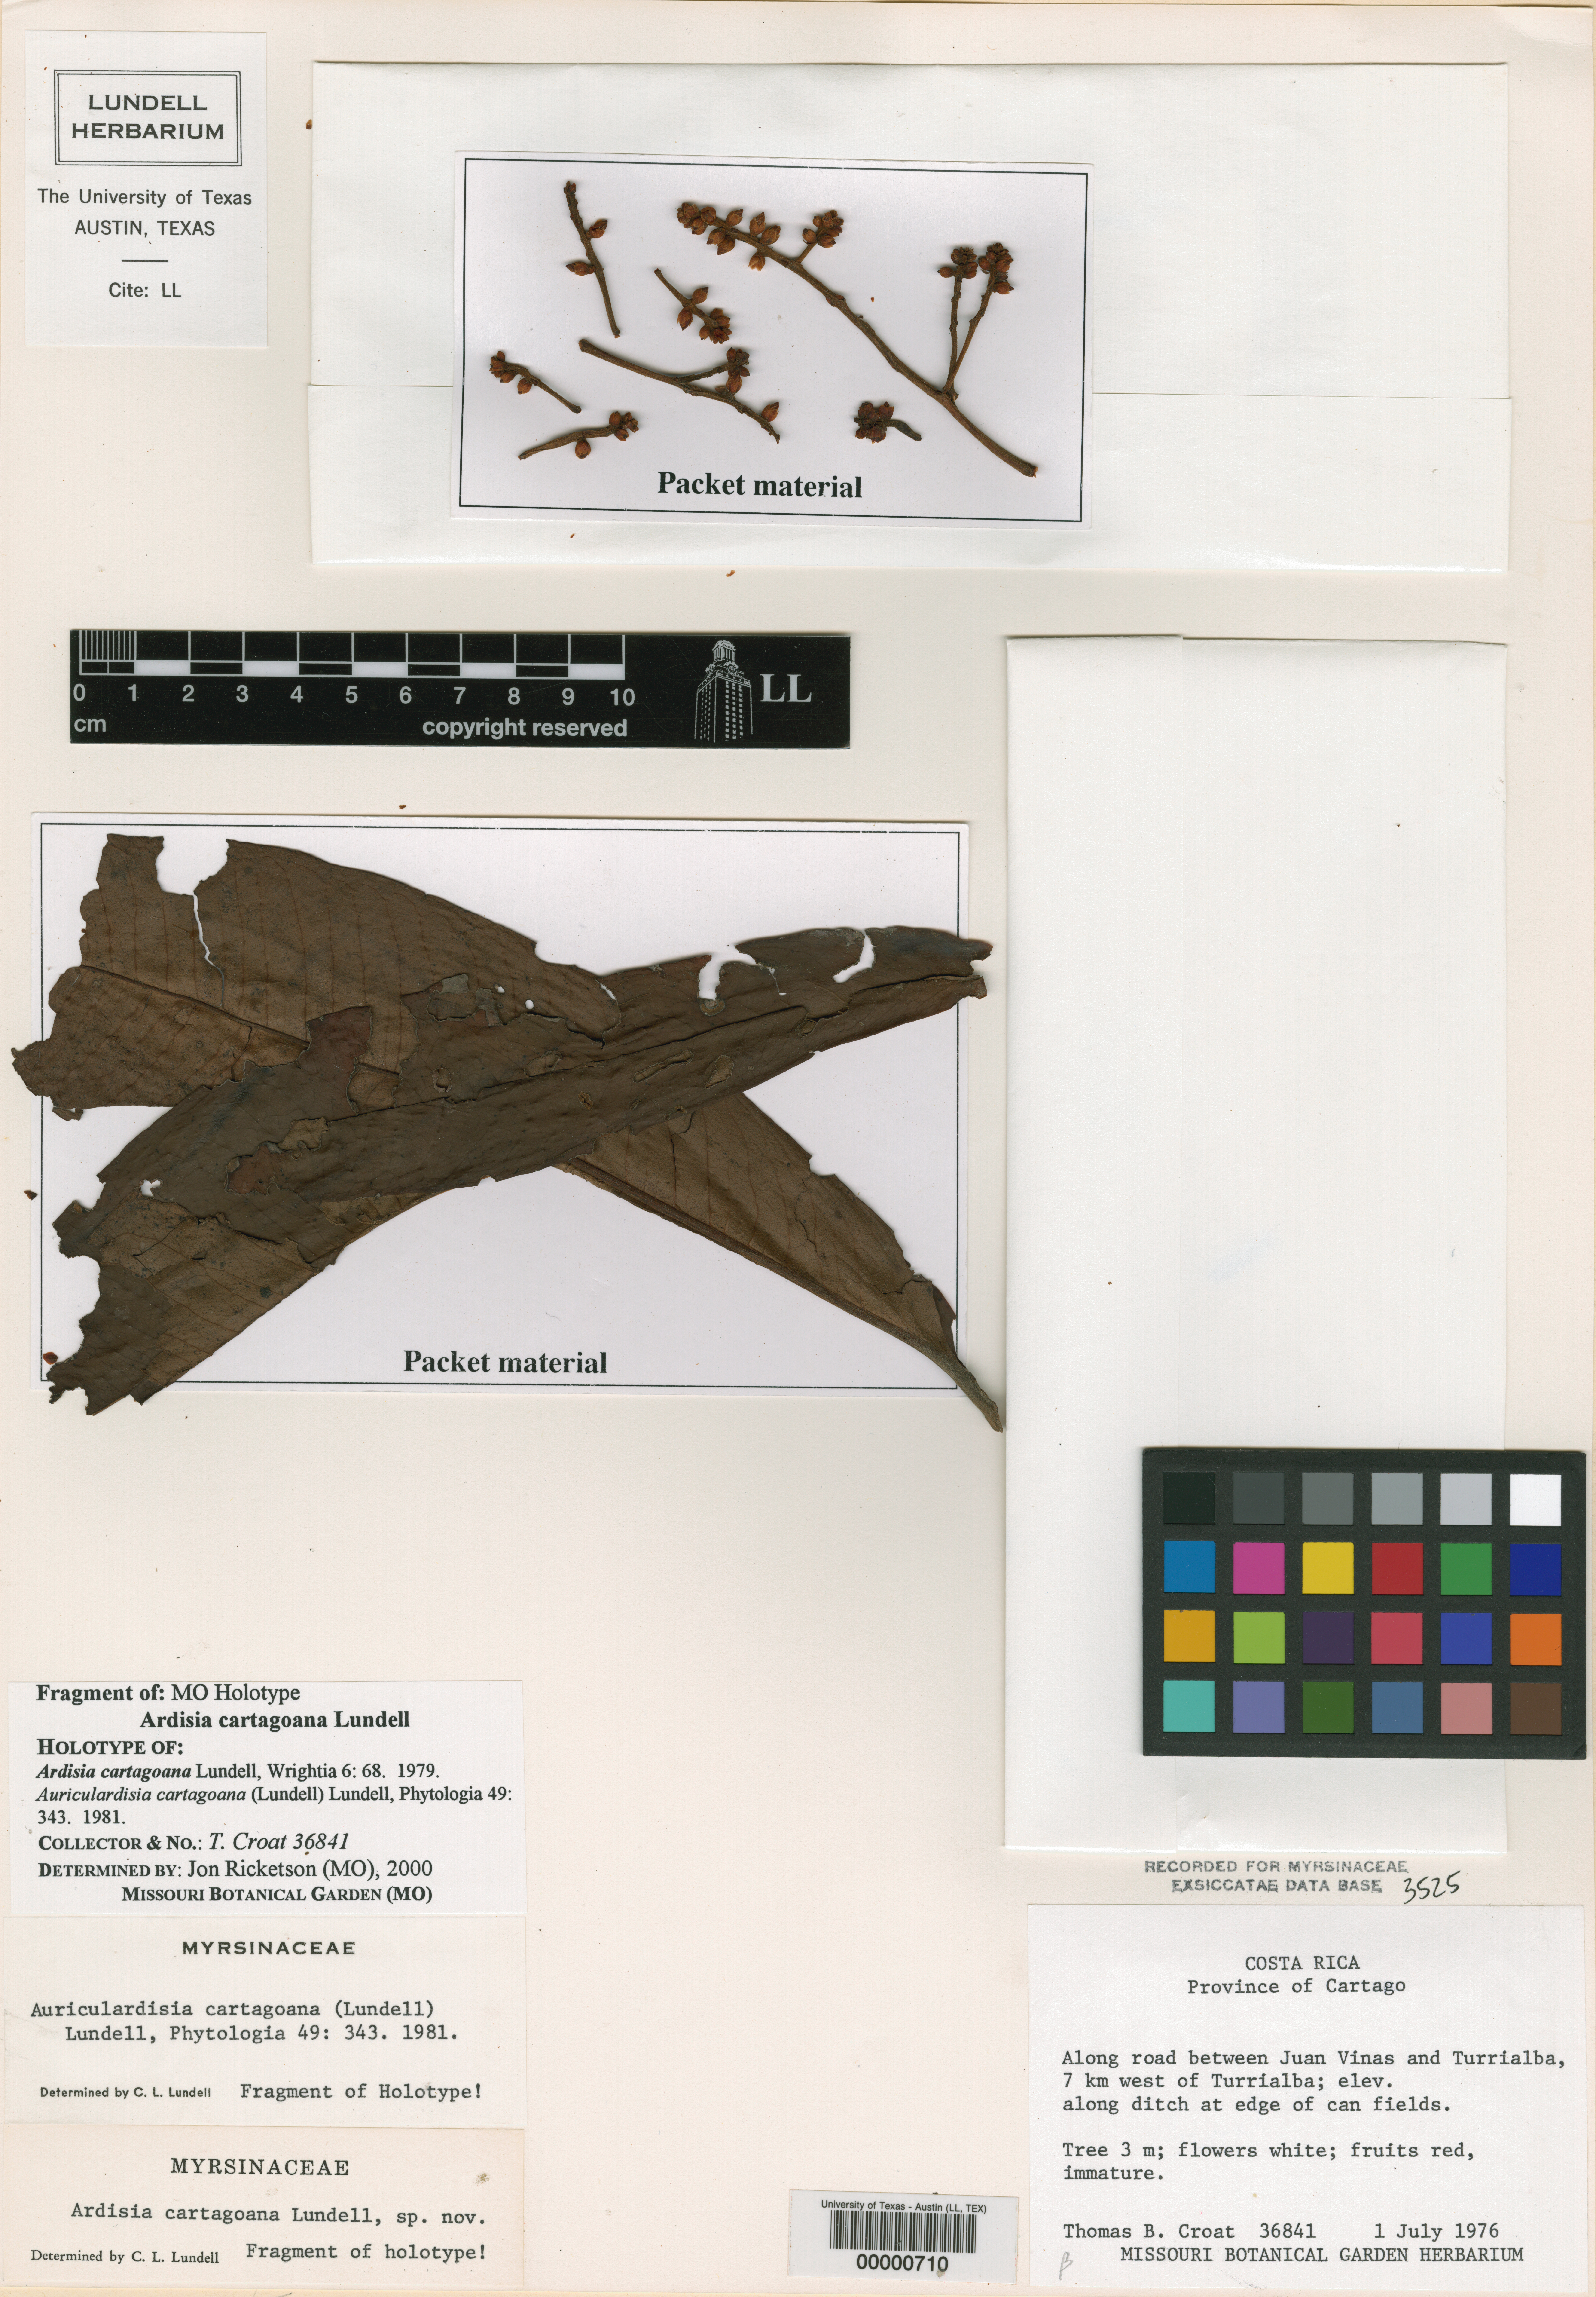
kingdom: Plantae
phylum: Tracheophyta
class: Magnoliopsida
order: Ericales
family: Primulaceae
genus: Ardisia
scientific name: Ardisia cartagoana
